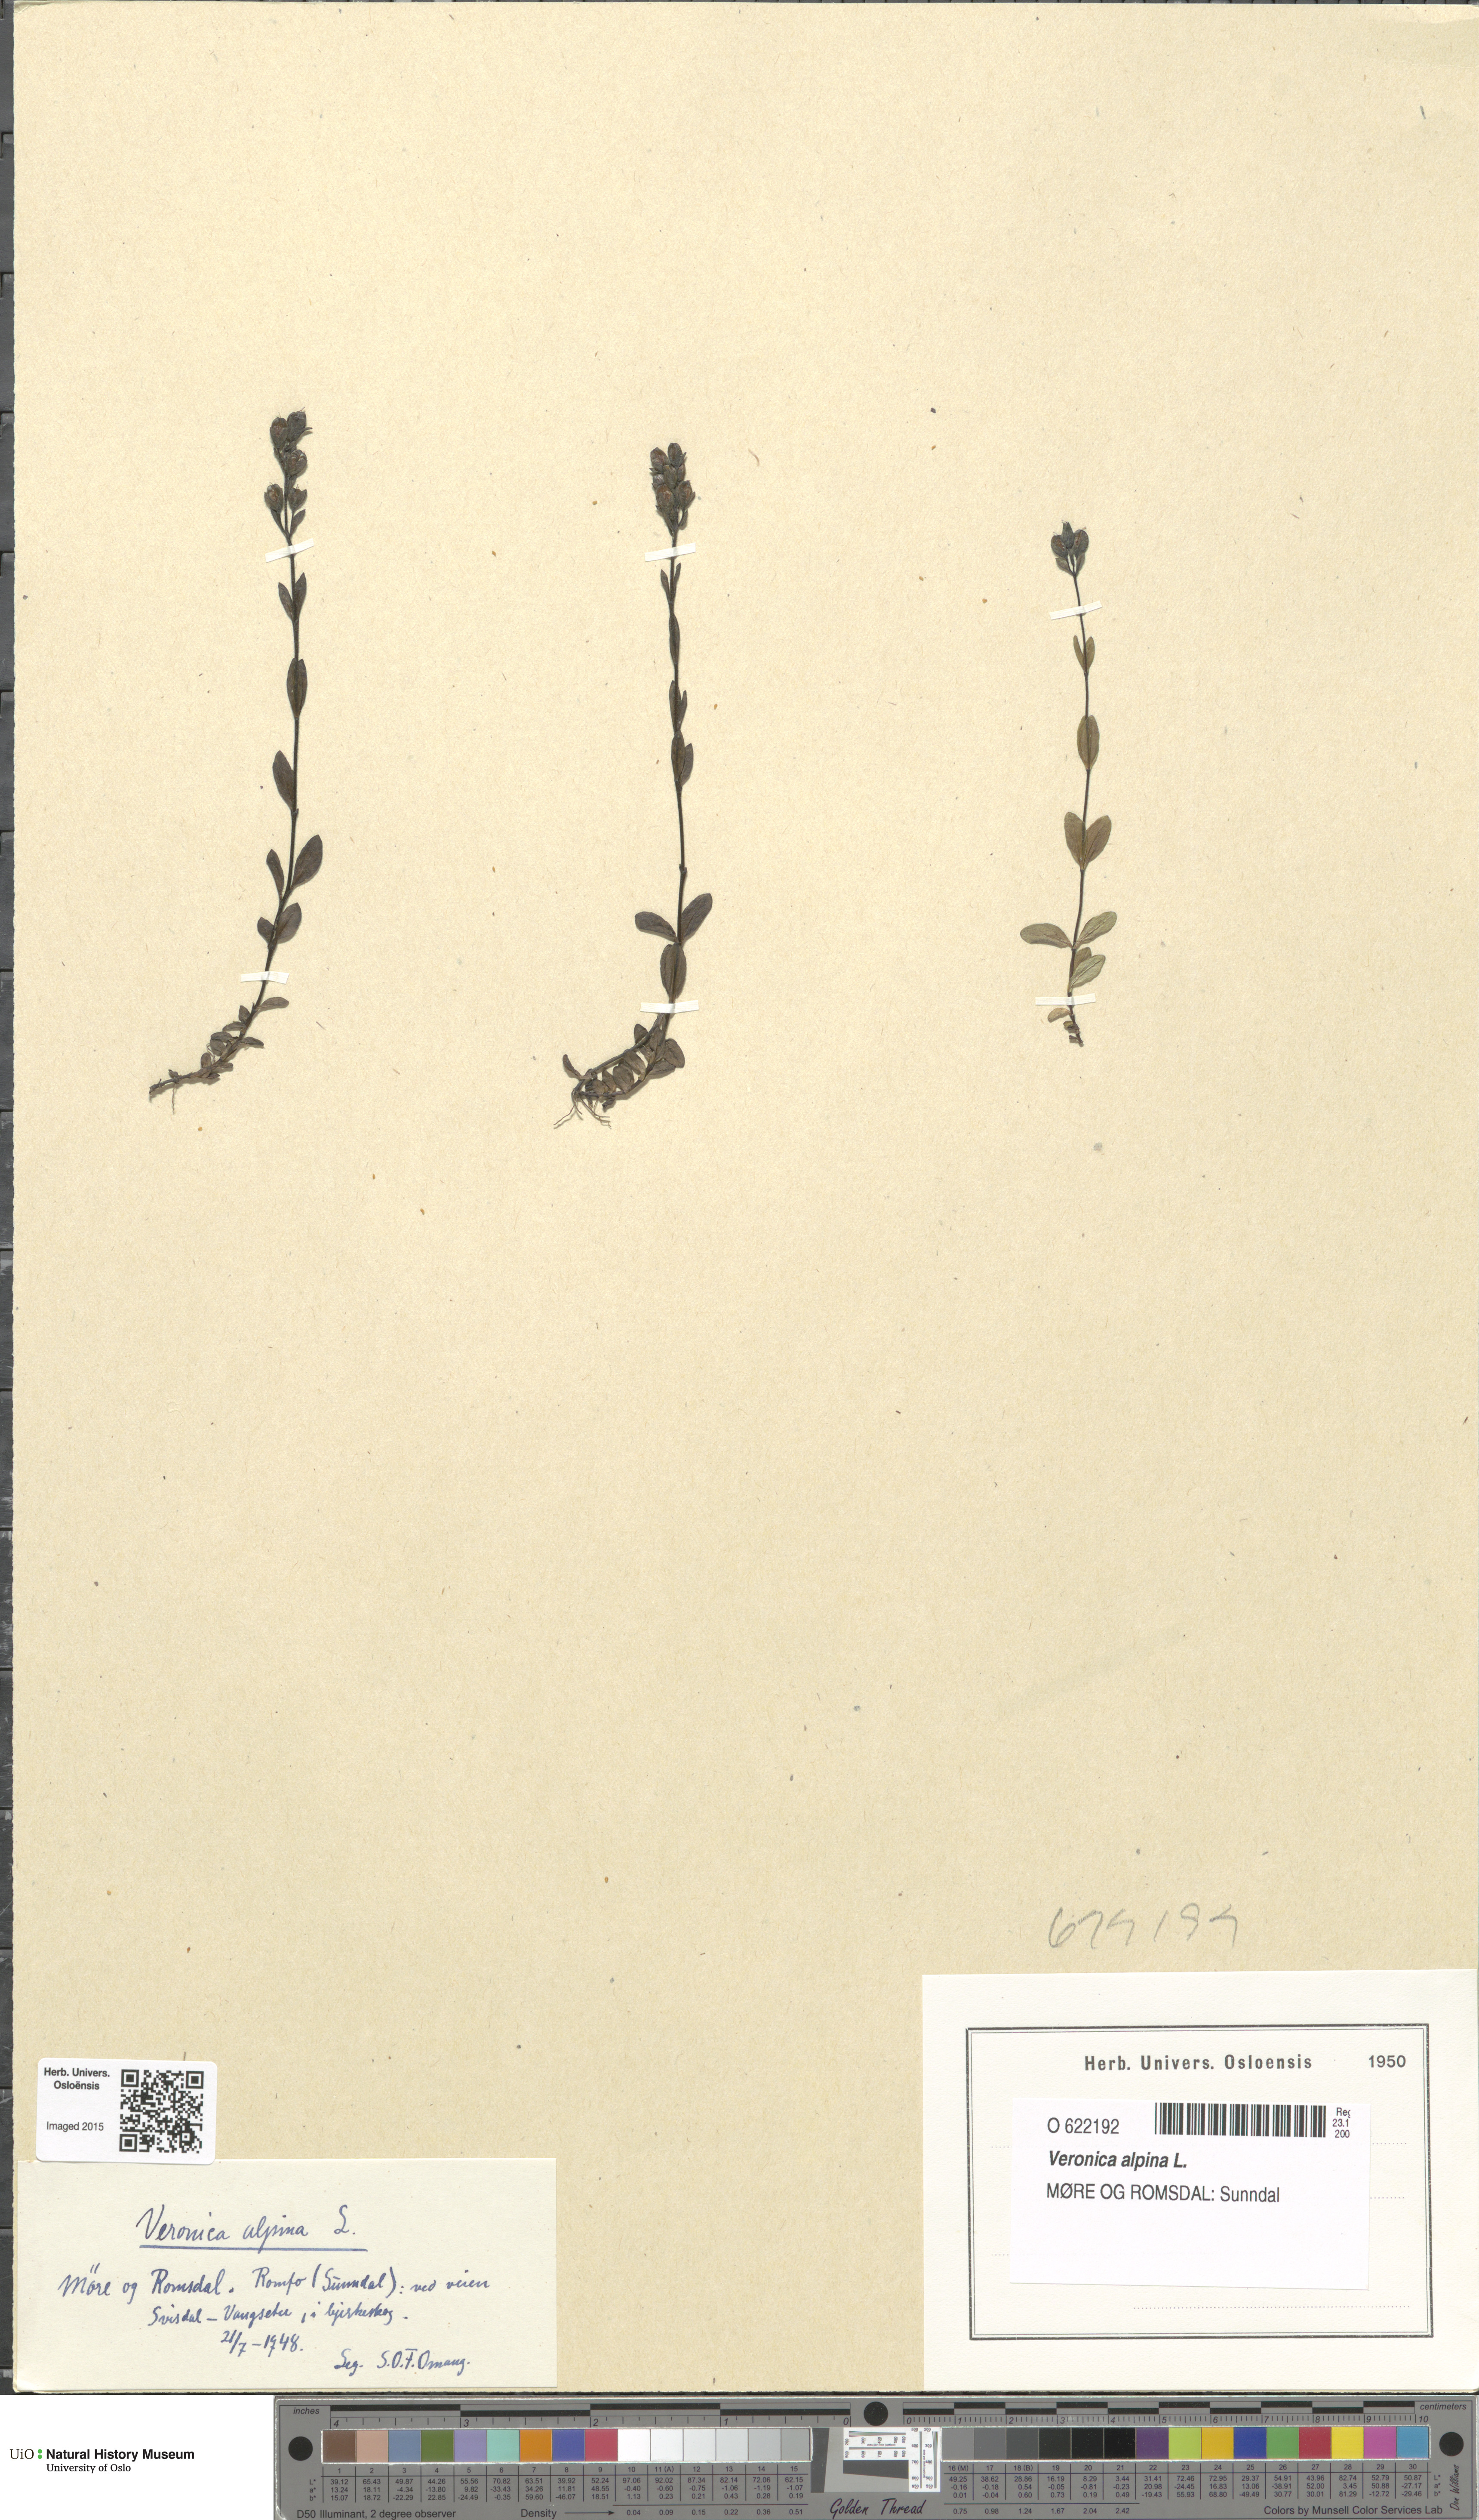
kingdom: Plantae
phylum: Tracheophyta
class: Magnoliopsida
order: Lamiales
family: Plantaginaceae
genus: Veronica
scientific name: Veronica alpina
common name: Alpine speedwell
